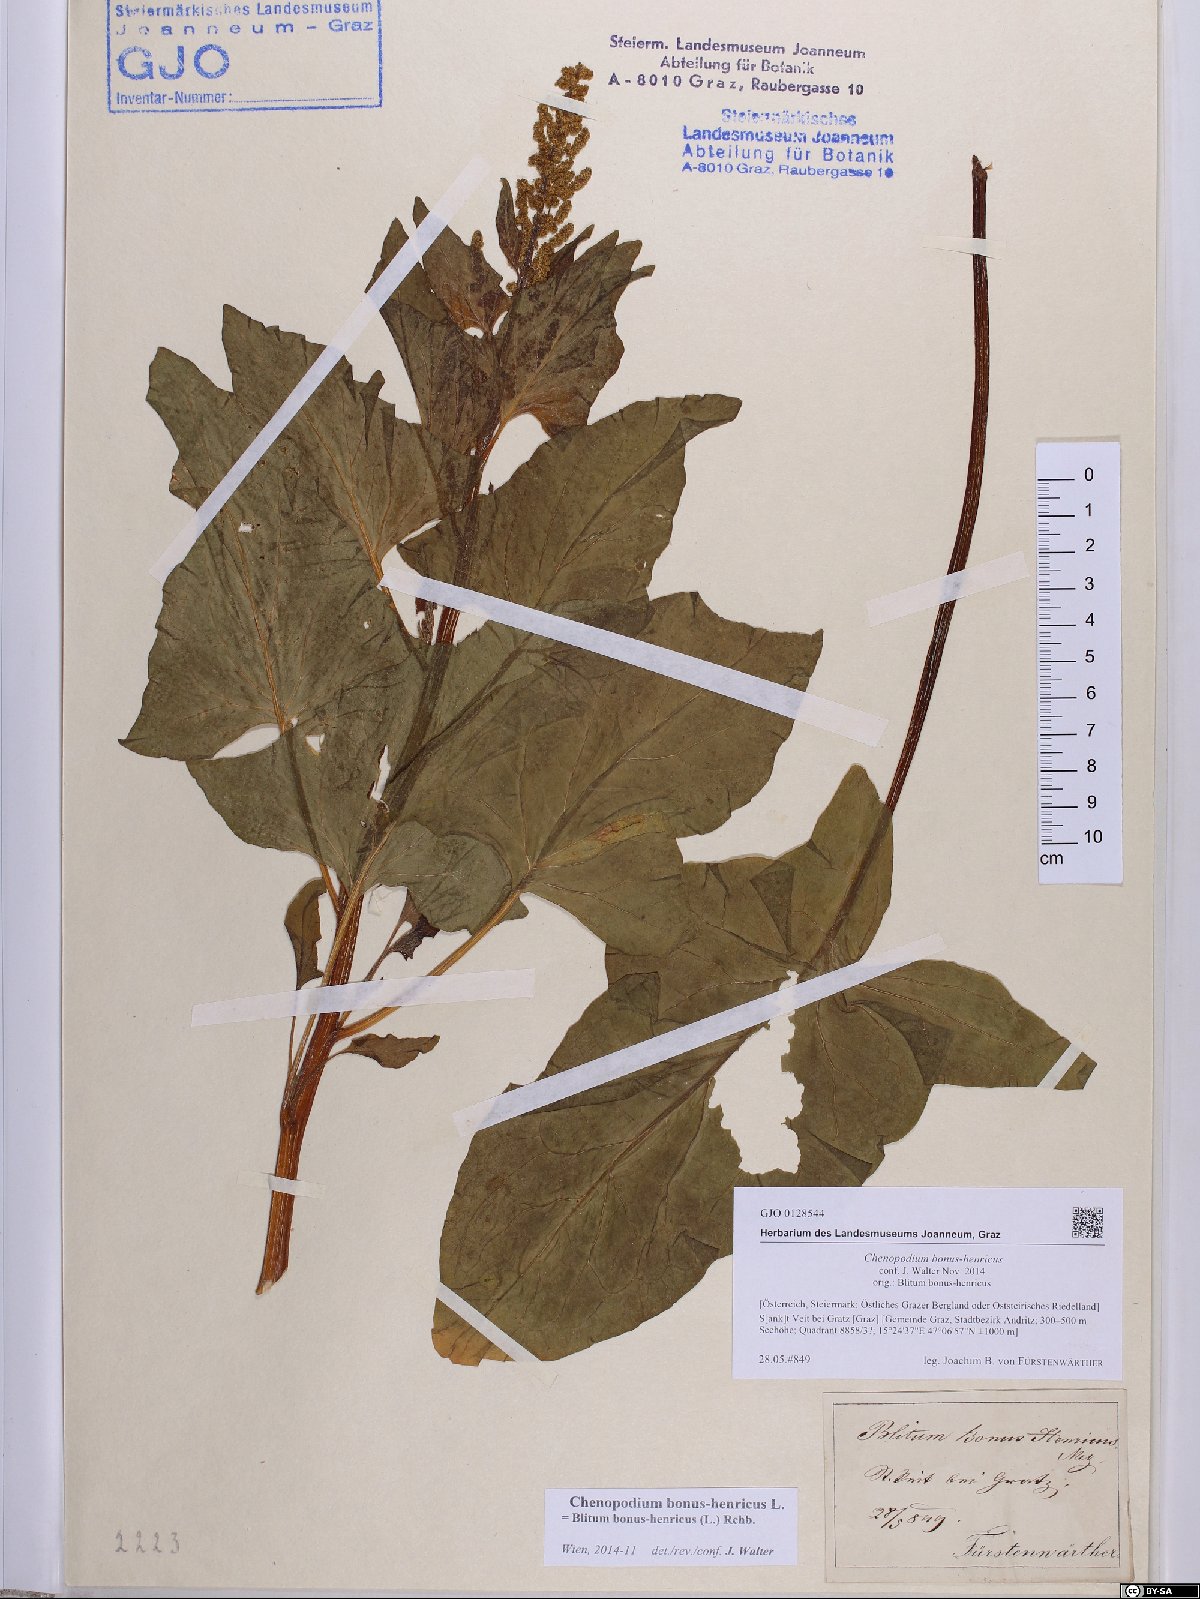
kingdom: Plantae
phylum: Tracheophyta
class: Magnoliopsida
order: Caryophyllales
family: Amaranthaceae
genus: Blitum
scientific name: Blitum bonus-henricus
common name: Good king henry
